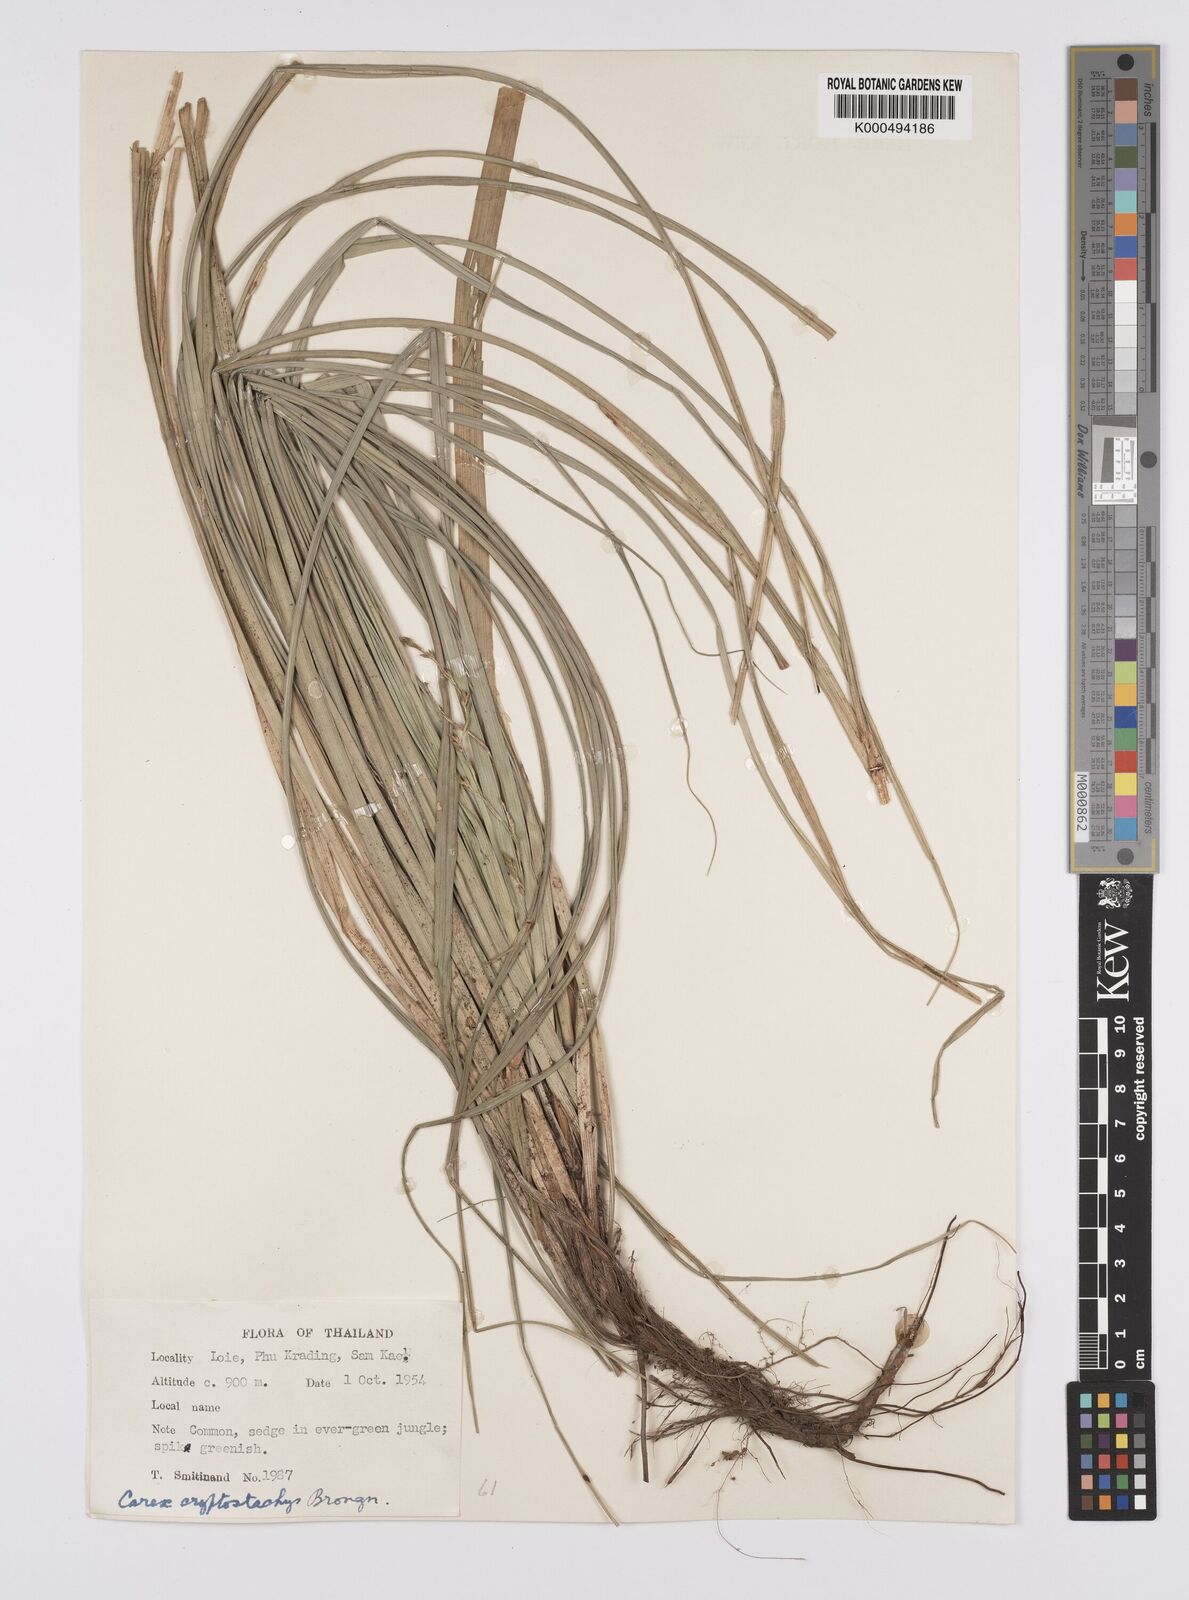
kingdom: Plantae
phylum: Tracheophyta
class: Liliopsida
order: Poales
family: Cyperaceae
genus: Carex
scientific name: Carex cryptostachys
